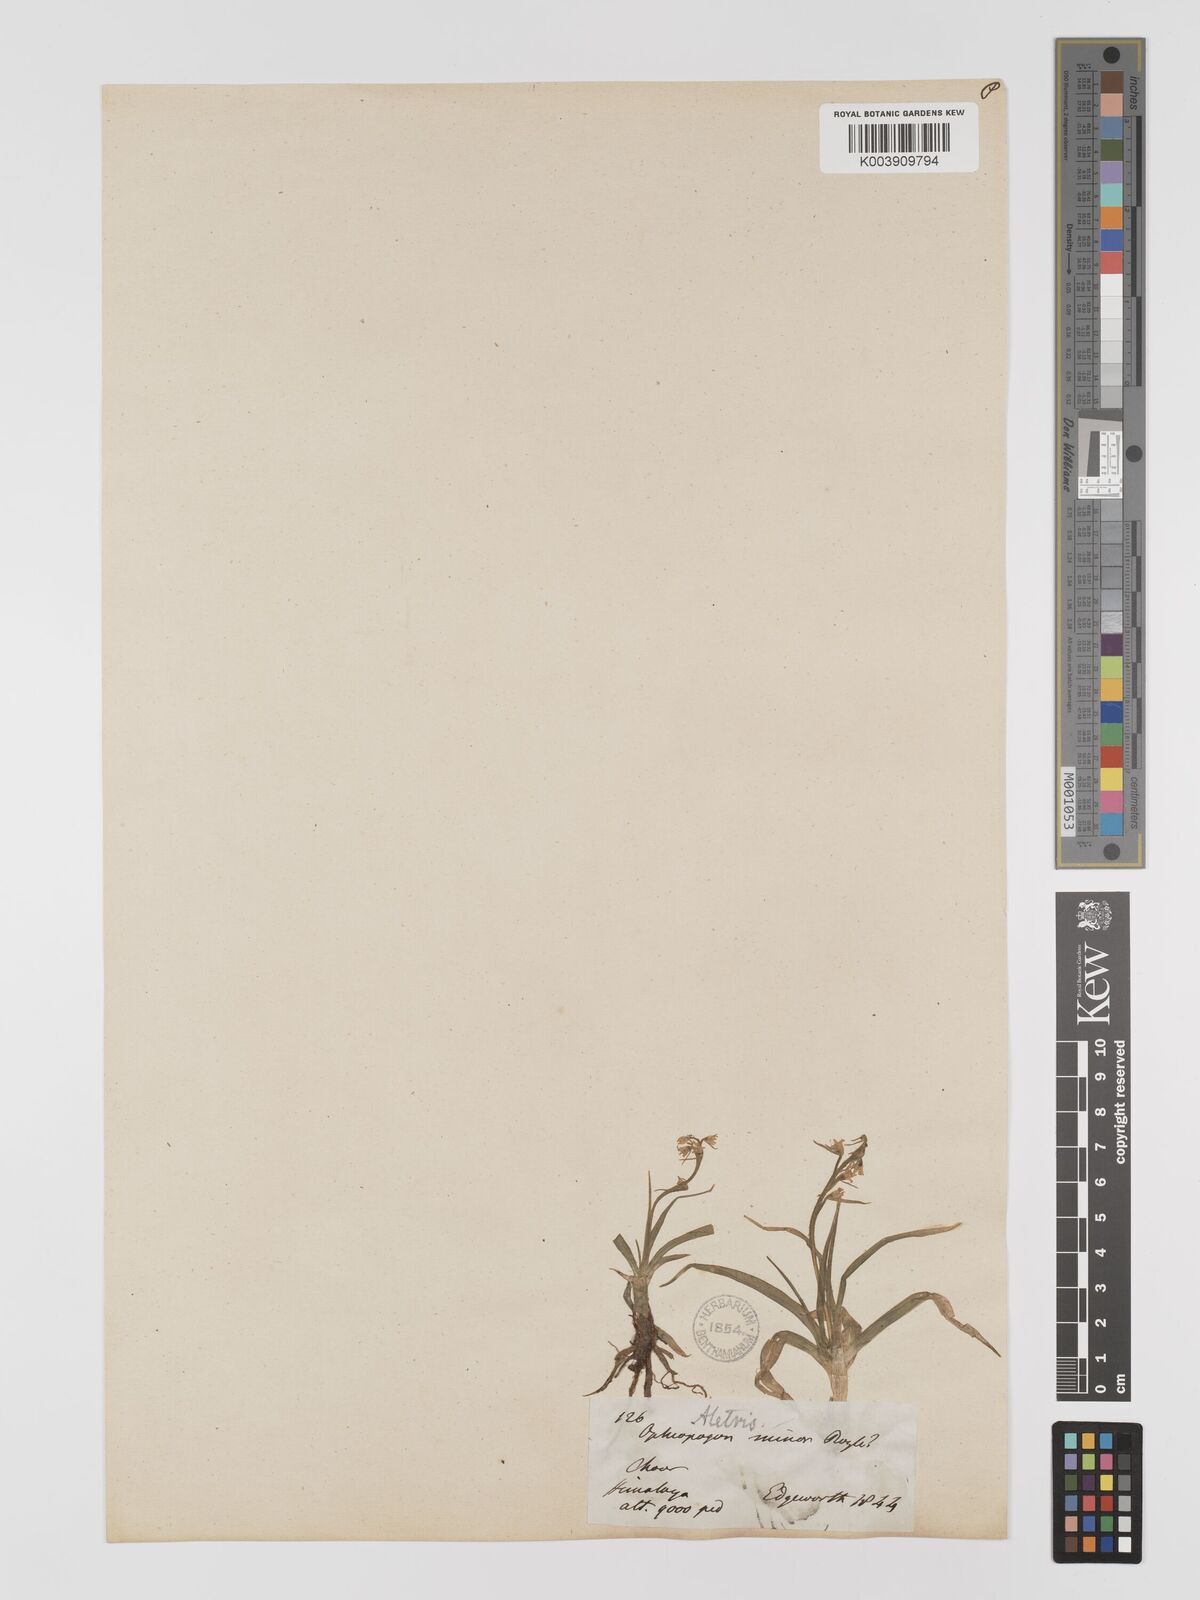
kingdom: Plantae
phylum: Tracheophyta
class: Liliopsida
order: Dioscoreales
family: Nartheciaceae
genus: Aletris
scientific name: Aletris pauciflora
